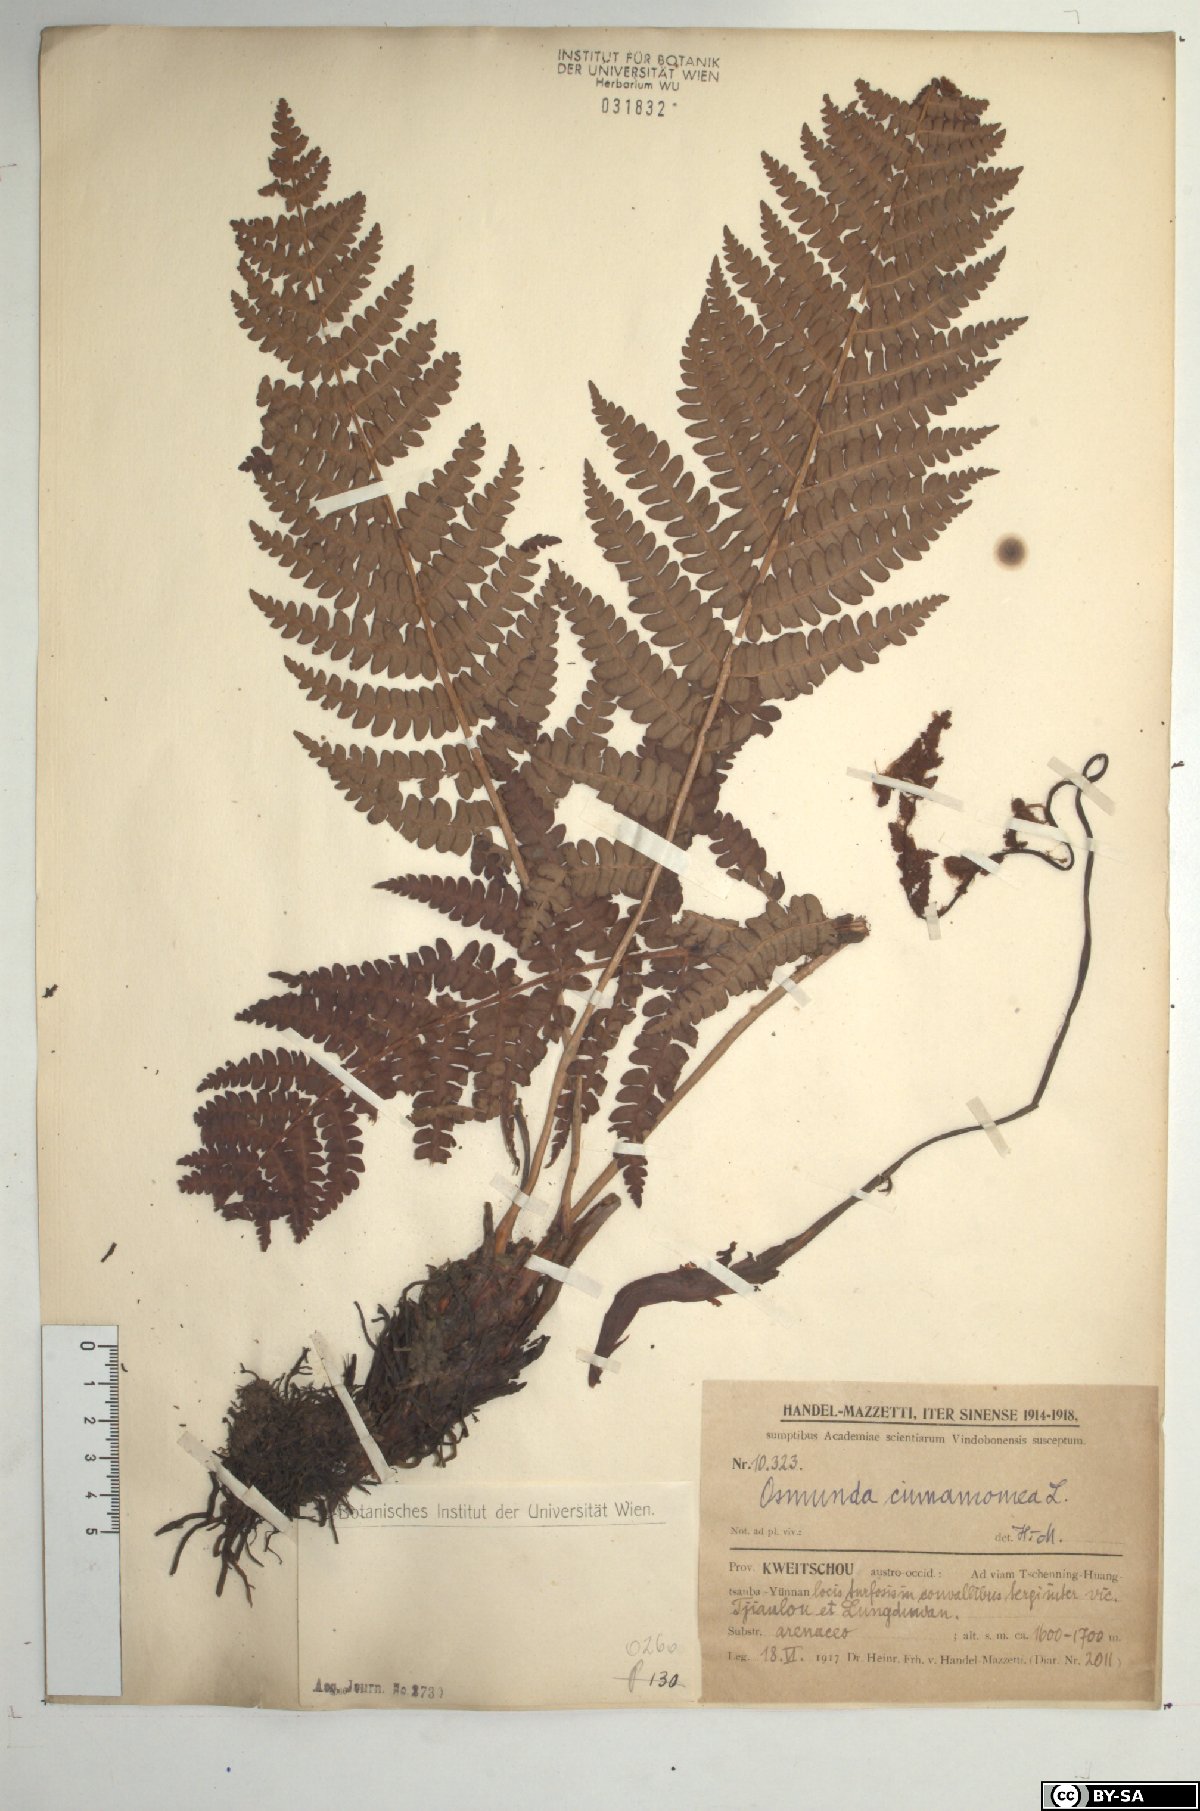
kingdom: Plantae
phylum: Tracheophyta
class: Polypodiopsida
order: Osmundales
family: Osmundaceae
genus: Osmundastrum
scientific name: Osmundastrum cinnamomeum
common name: Cinnamon fern
